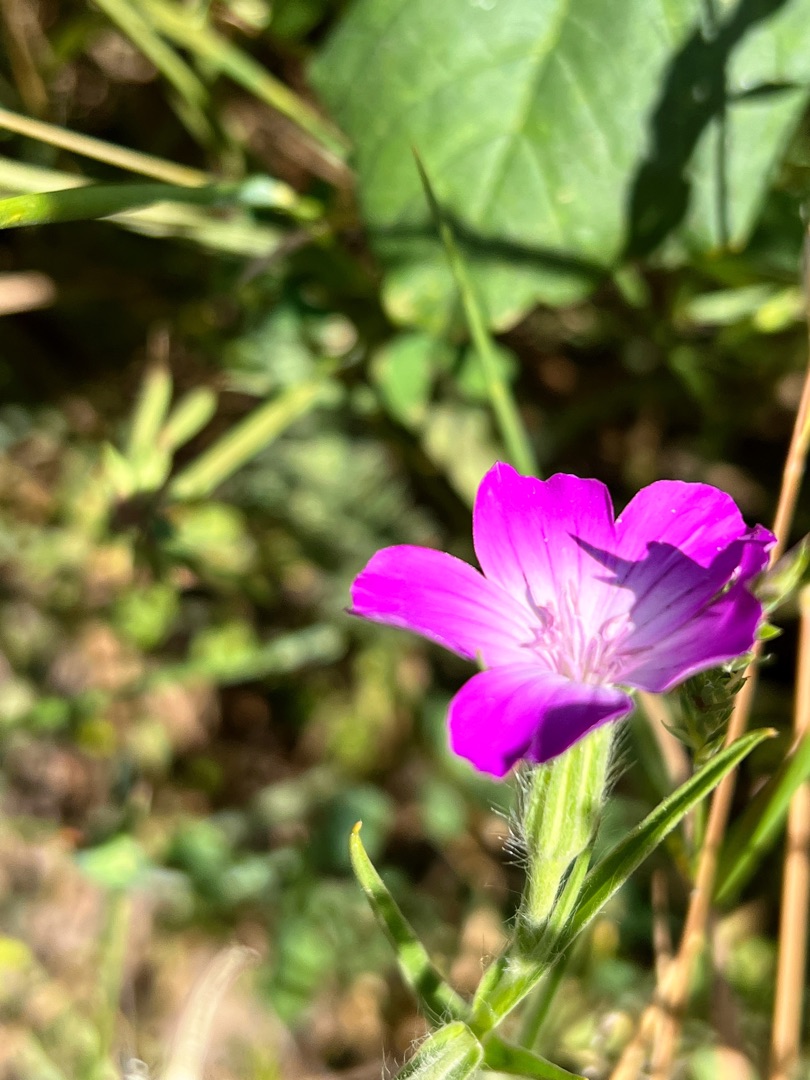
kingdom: Plantae
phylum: Tracheophyta
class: Magnoliopsida
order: Caryophyllales
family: Caryophyllaceae
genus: Agrostemma
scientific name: Agrostemma githago
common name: Klinte
